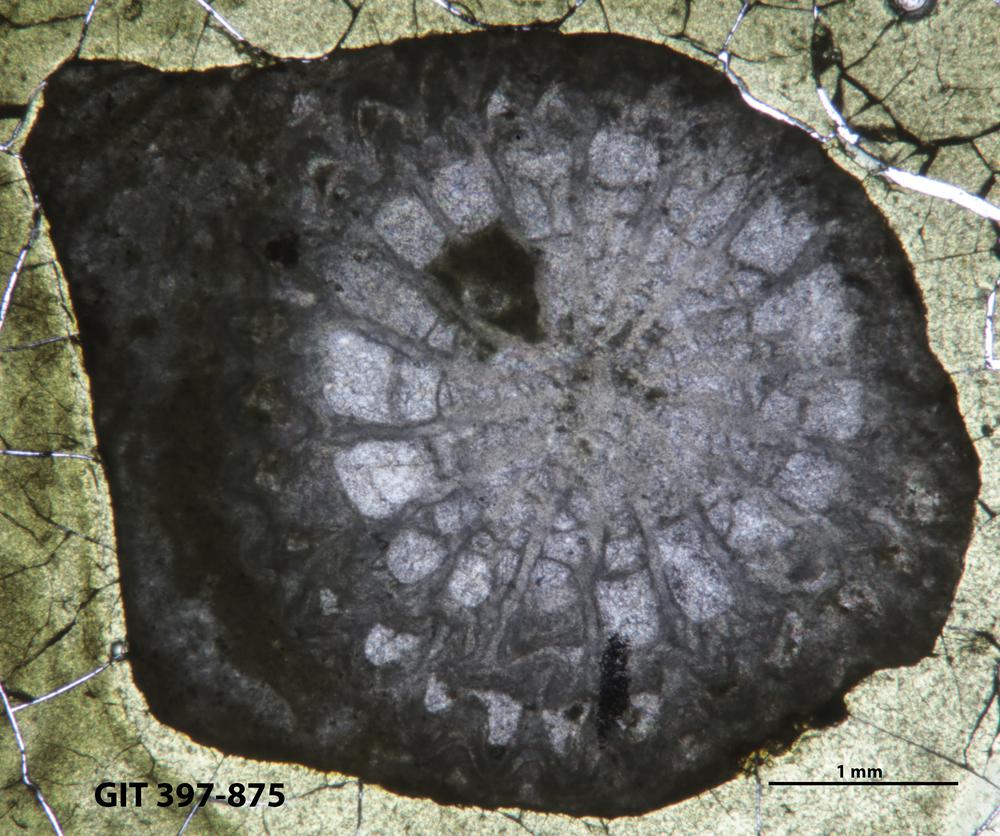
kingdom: Animalia
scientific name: Animalia
